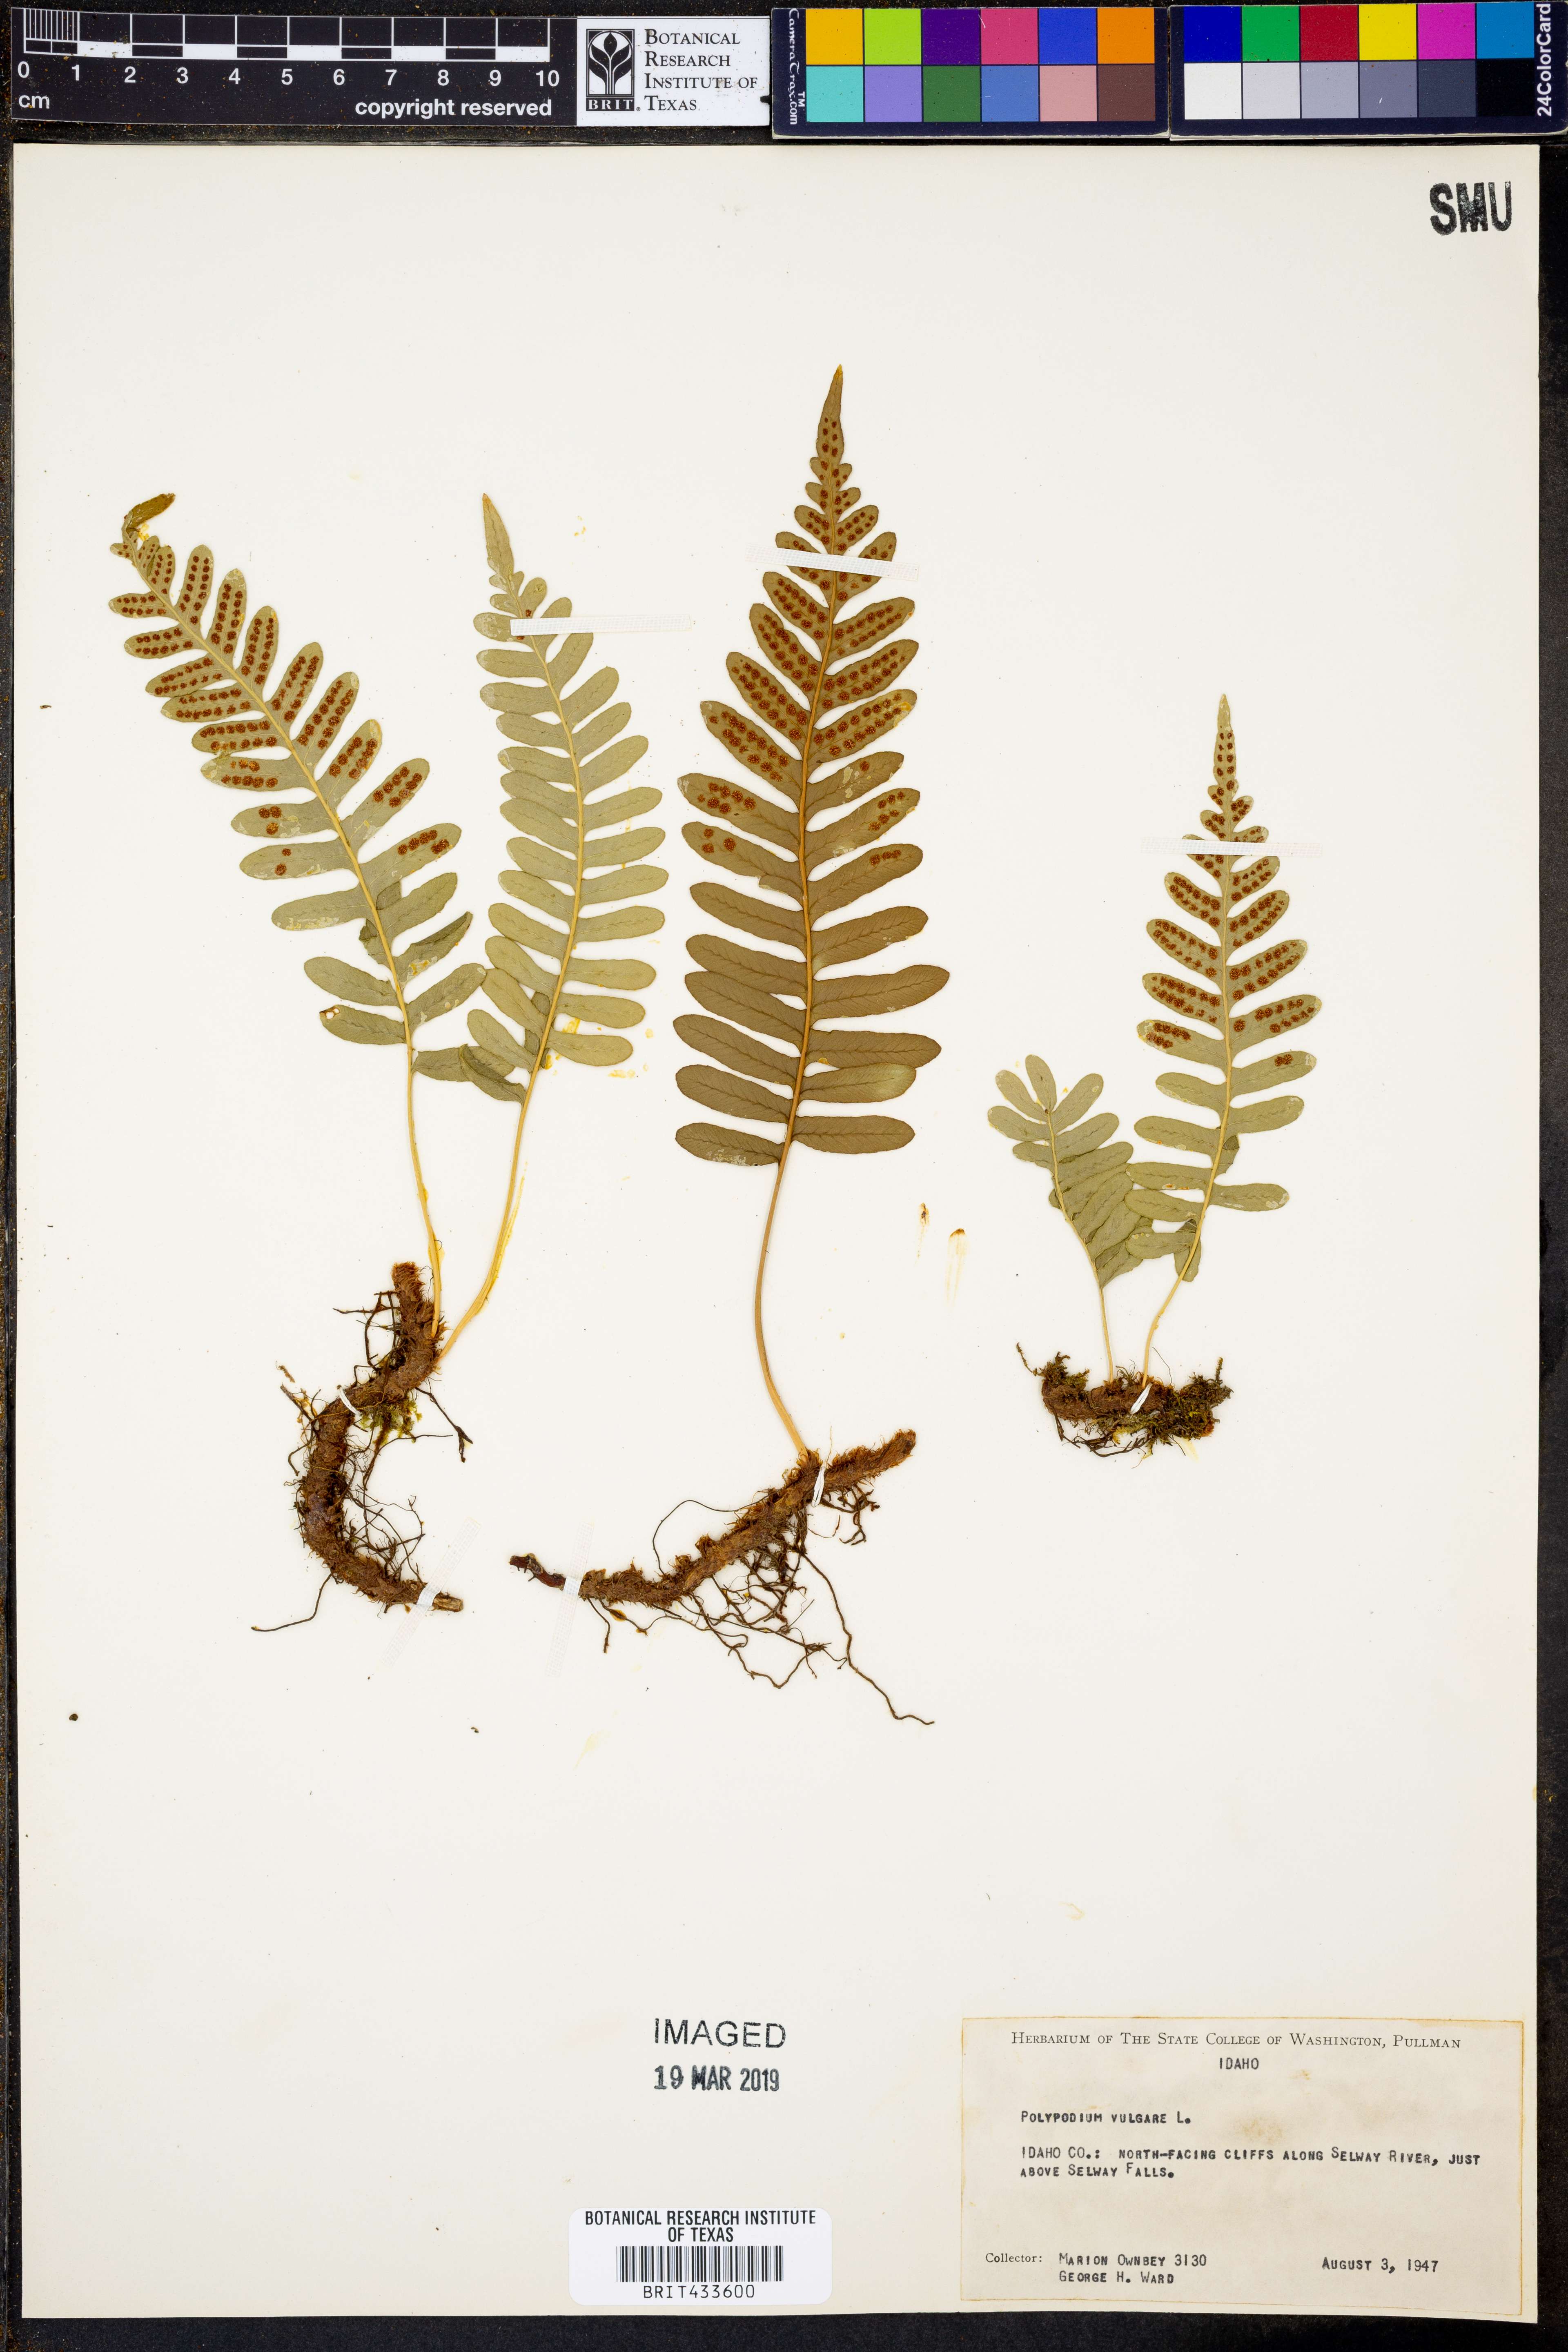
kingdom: Plantae
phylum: Tracheophyta
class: Polypodiopsida
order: Polypodiales
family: Polypodiaceae
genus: Polypodium
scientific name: Polypodium vulgare
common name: Common polypody
